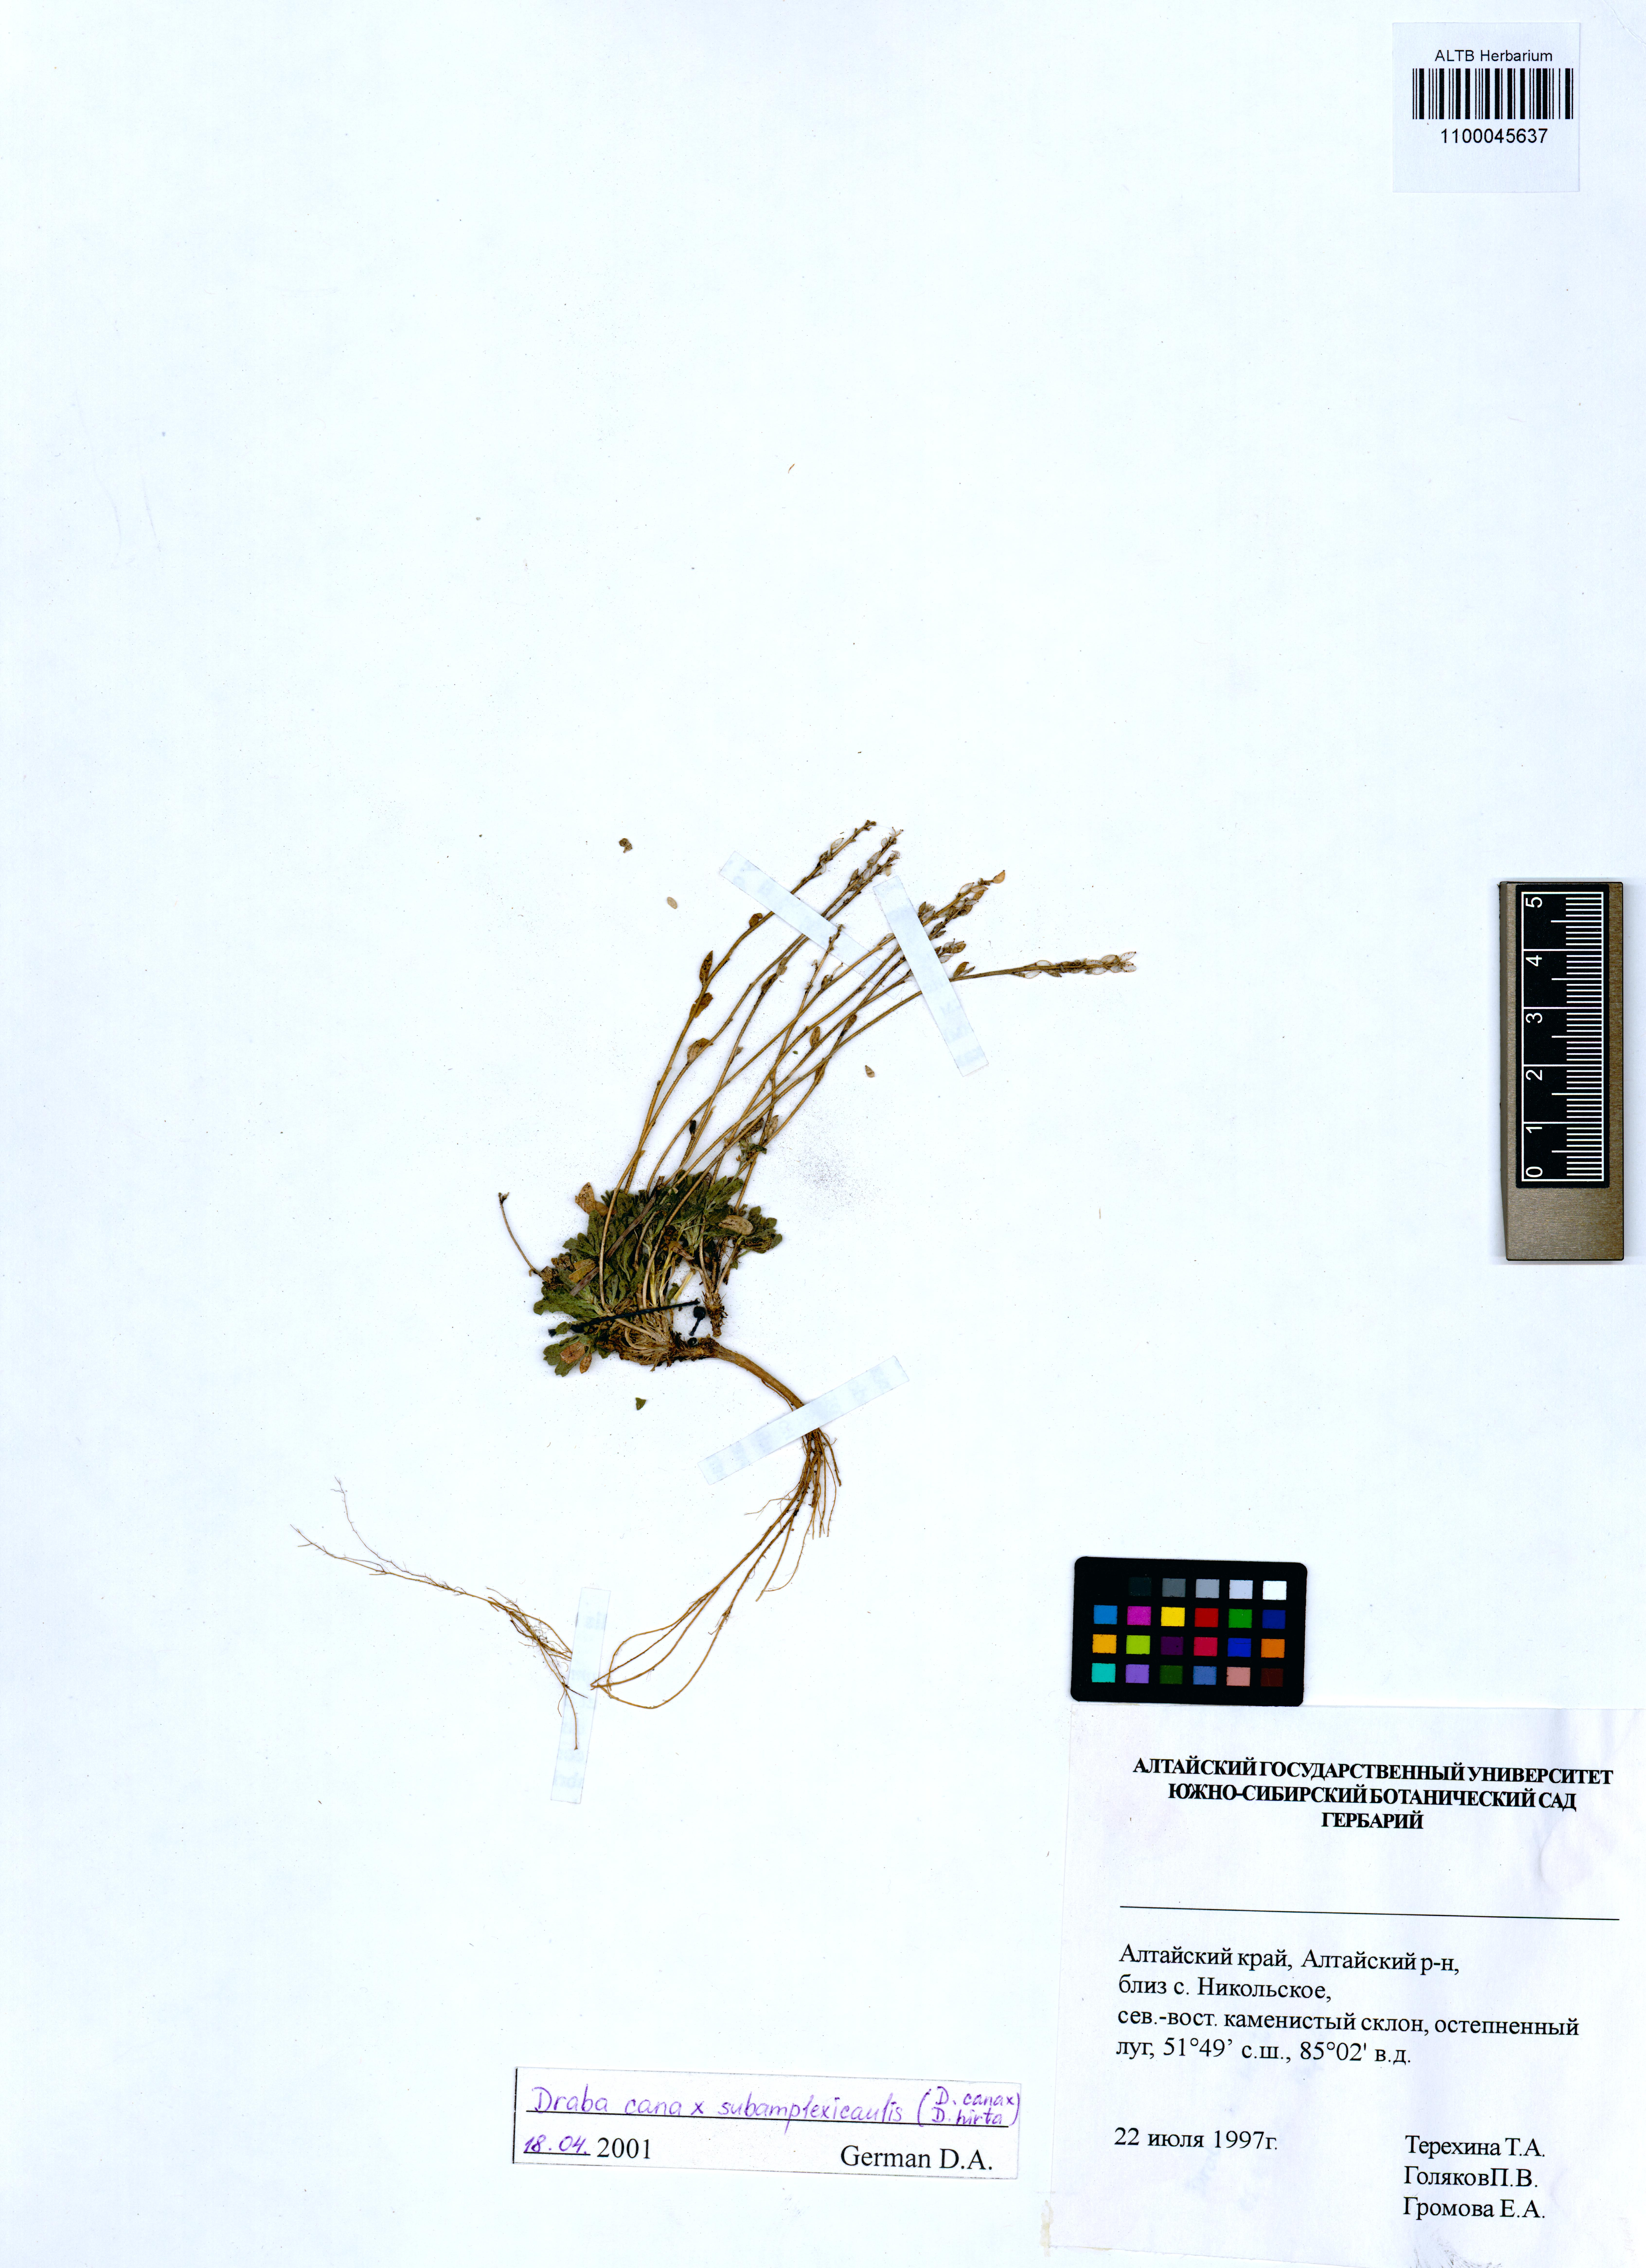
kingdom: Plantae
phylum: Tracheophyta
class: Magnoliopsida
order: Brassicales
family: Brassicaceae
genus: Draba
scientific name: Draba cana
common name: Hoary draba
